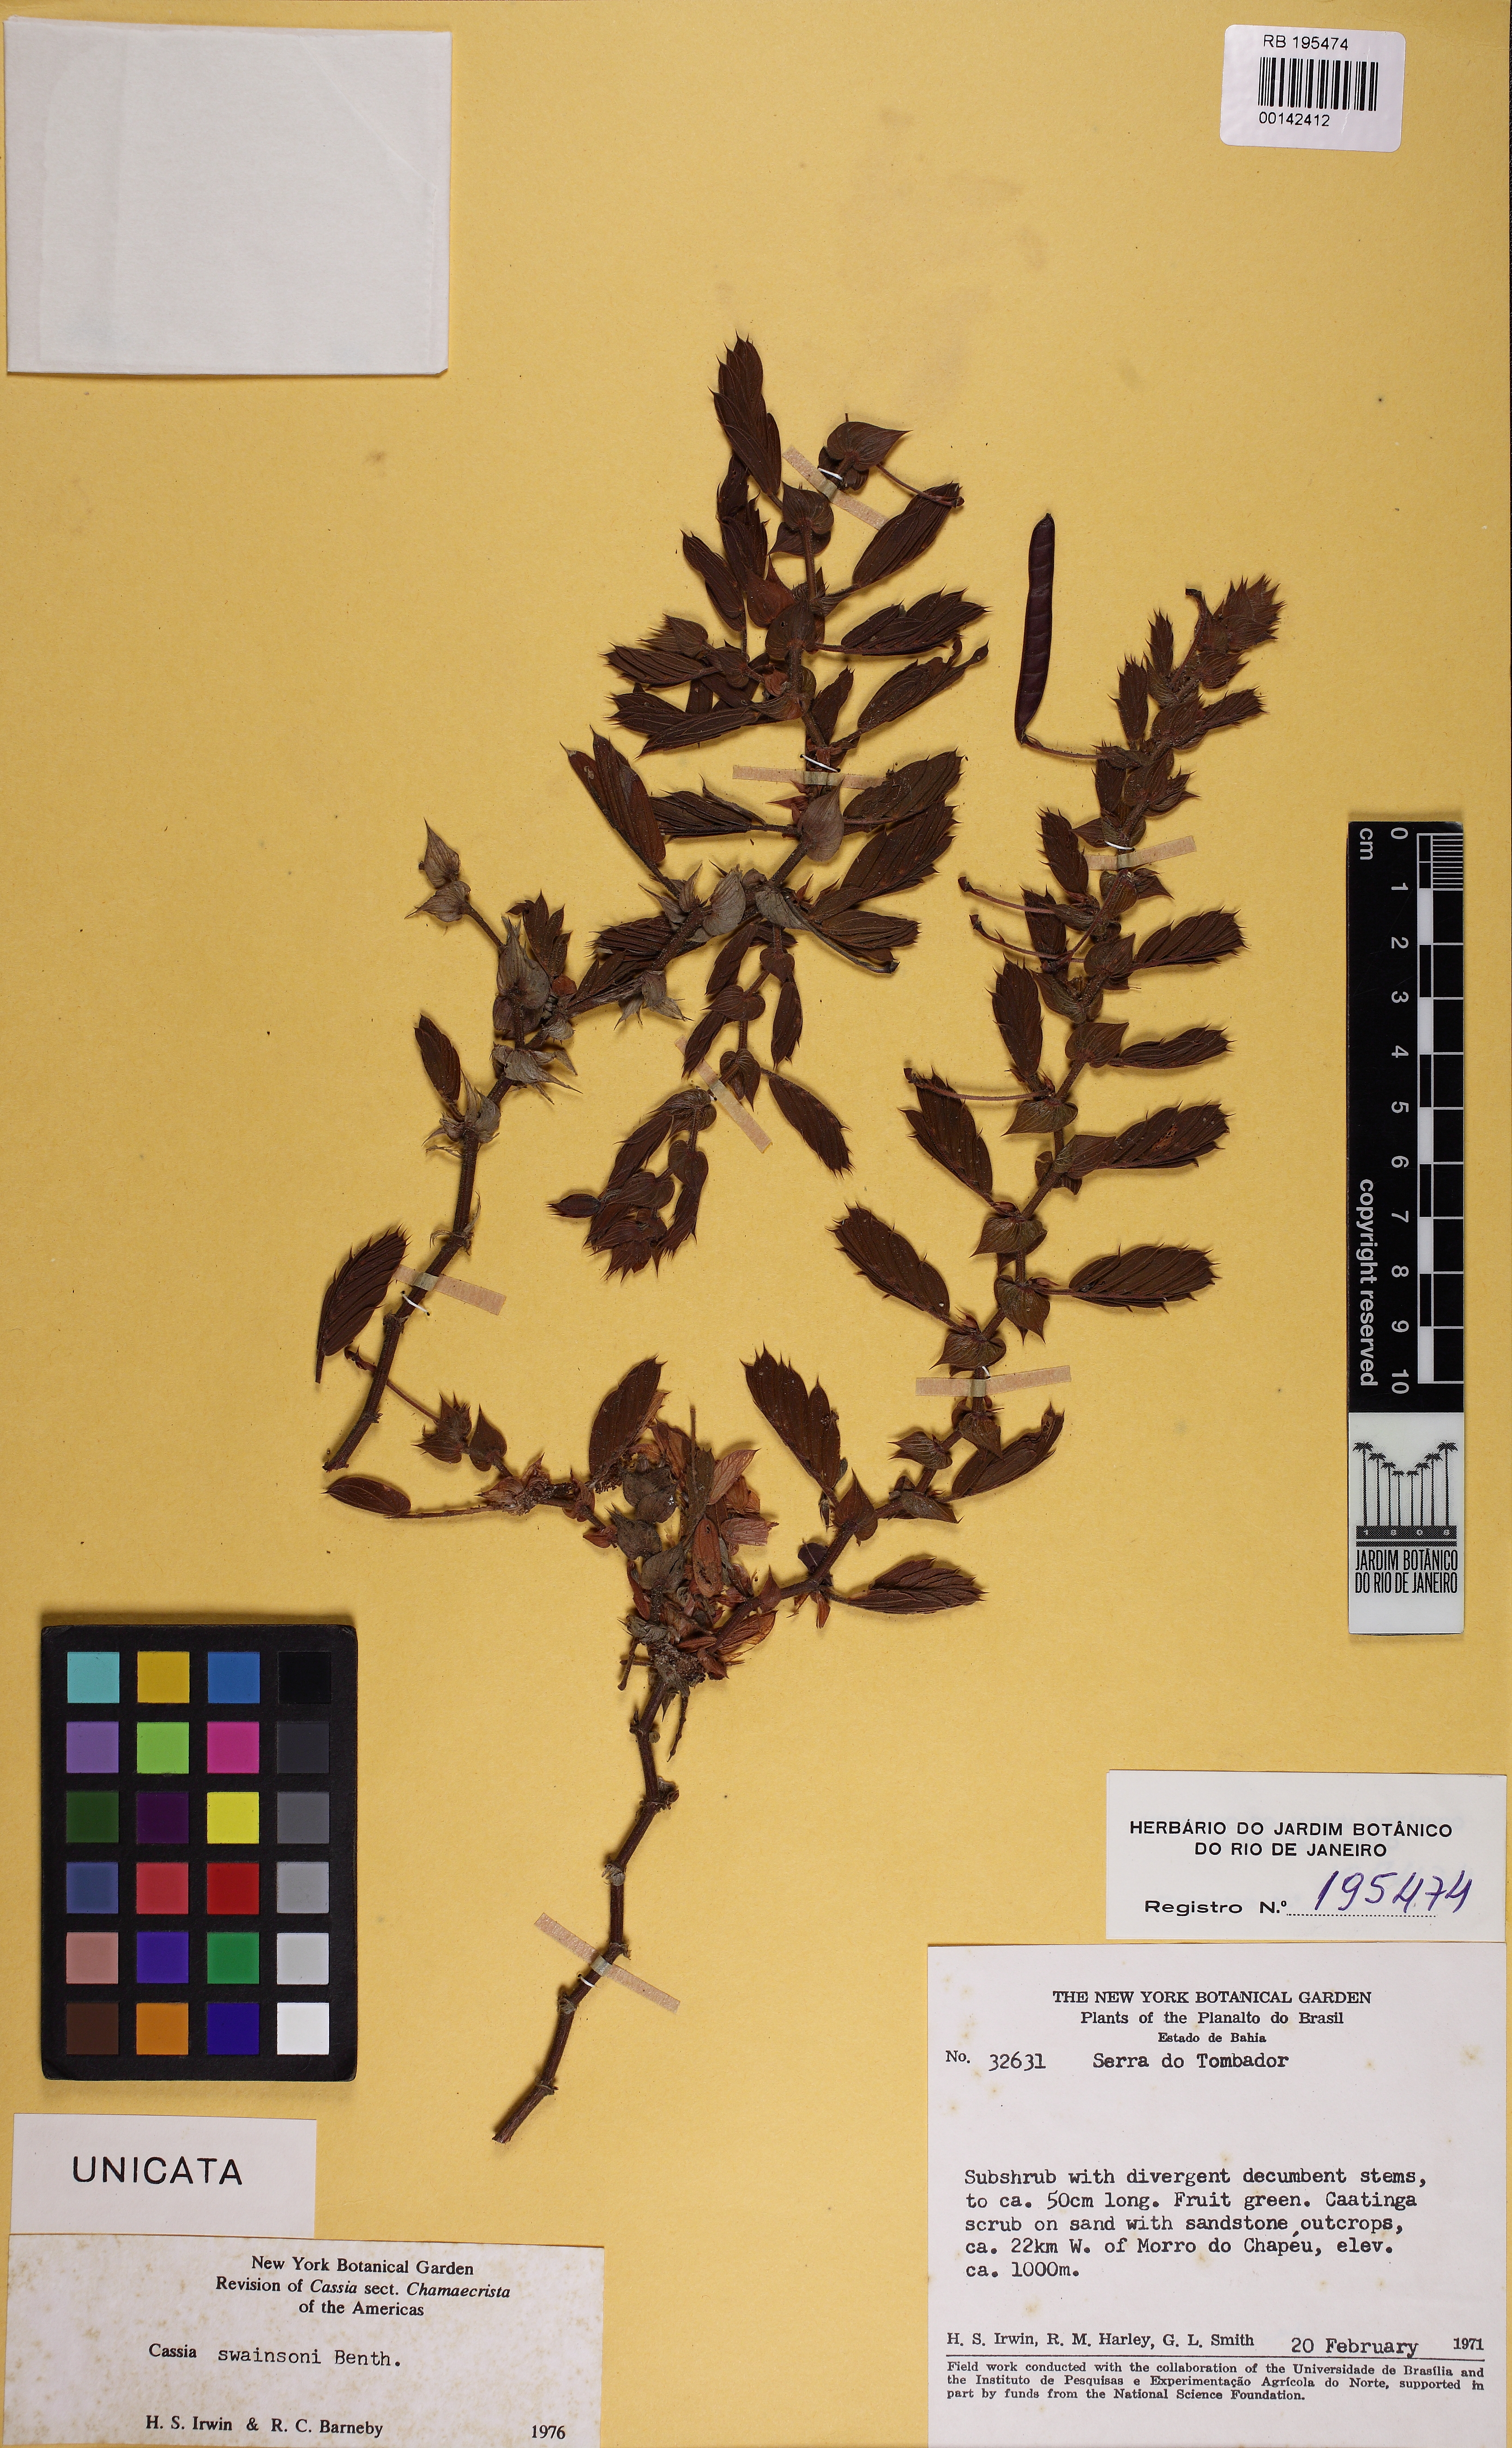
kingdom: Plantae
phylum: Tracheophyta
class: Magnoliopsida
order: Fabales
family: Fabaceae
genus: Chamaecrista
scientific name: Chamaecrista swainsonii
